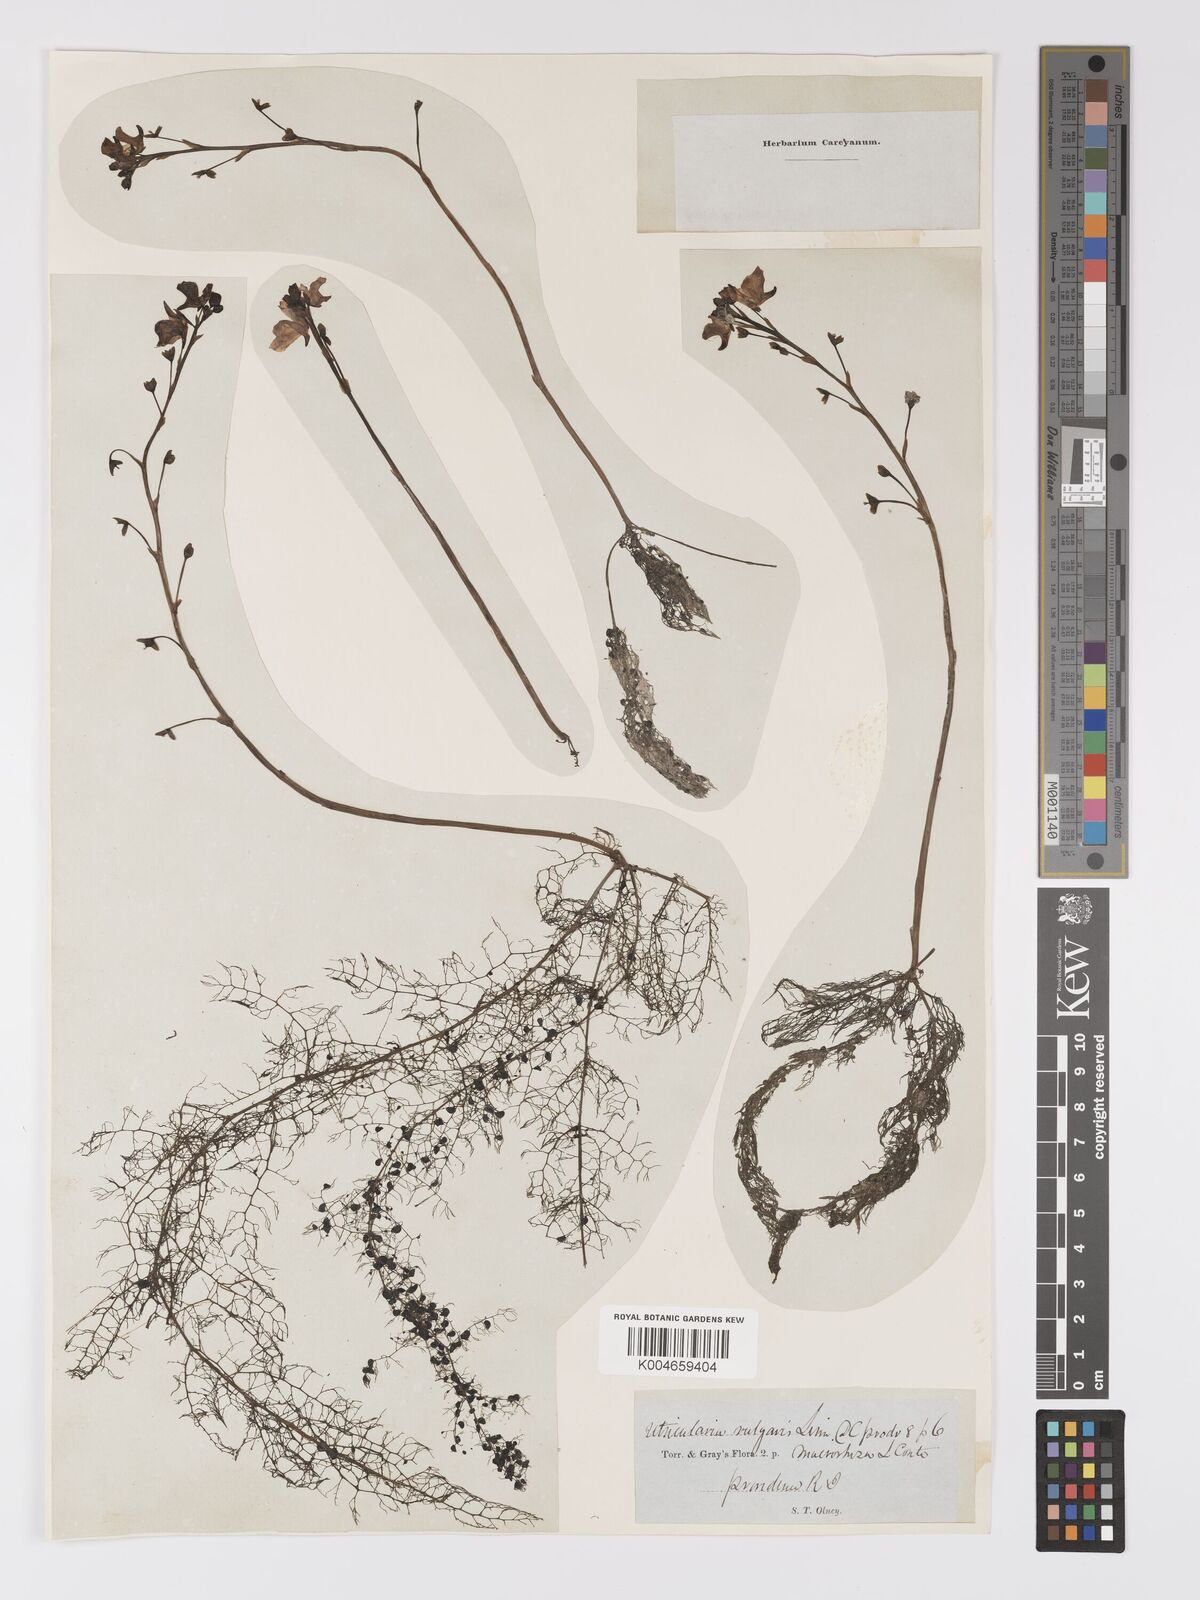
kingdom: Plantae
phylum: Tracheophyta
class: Magnoliopsida
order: Lamiales
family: Lentibulariaceae
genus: Utricularia
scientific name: Utricularia macrorhiza
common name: Common bladderwort
